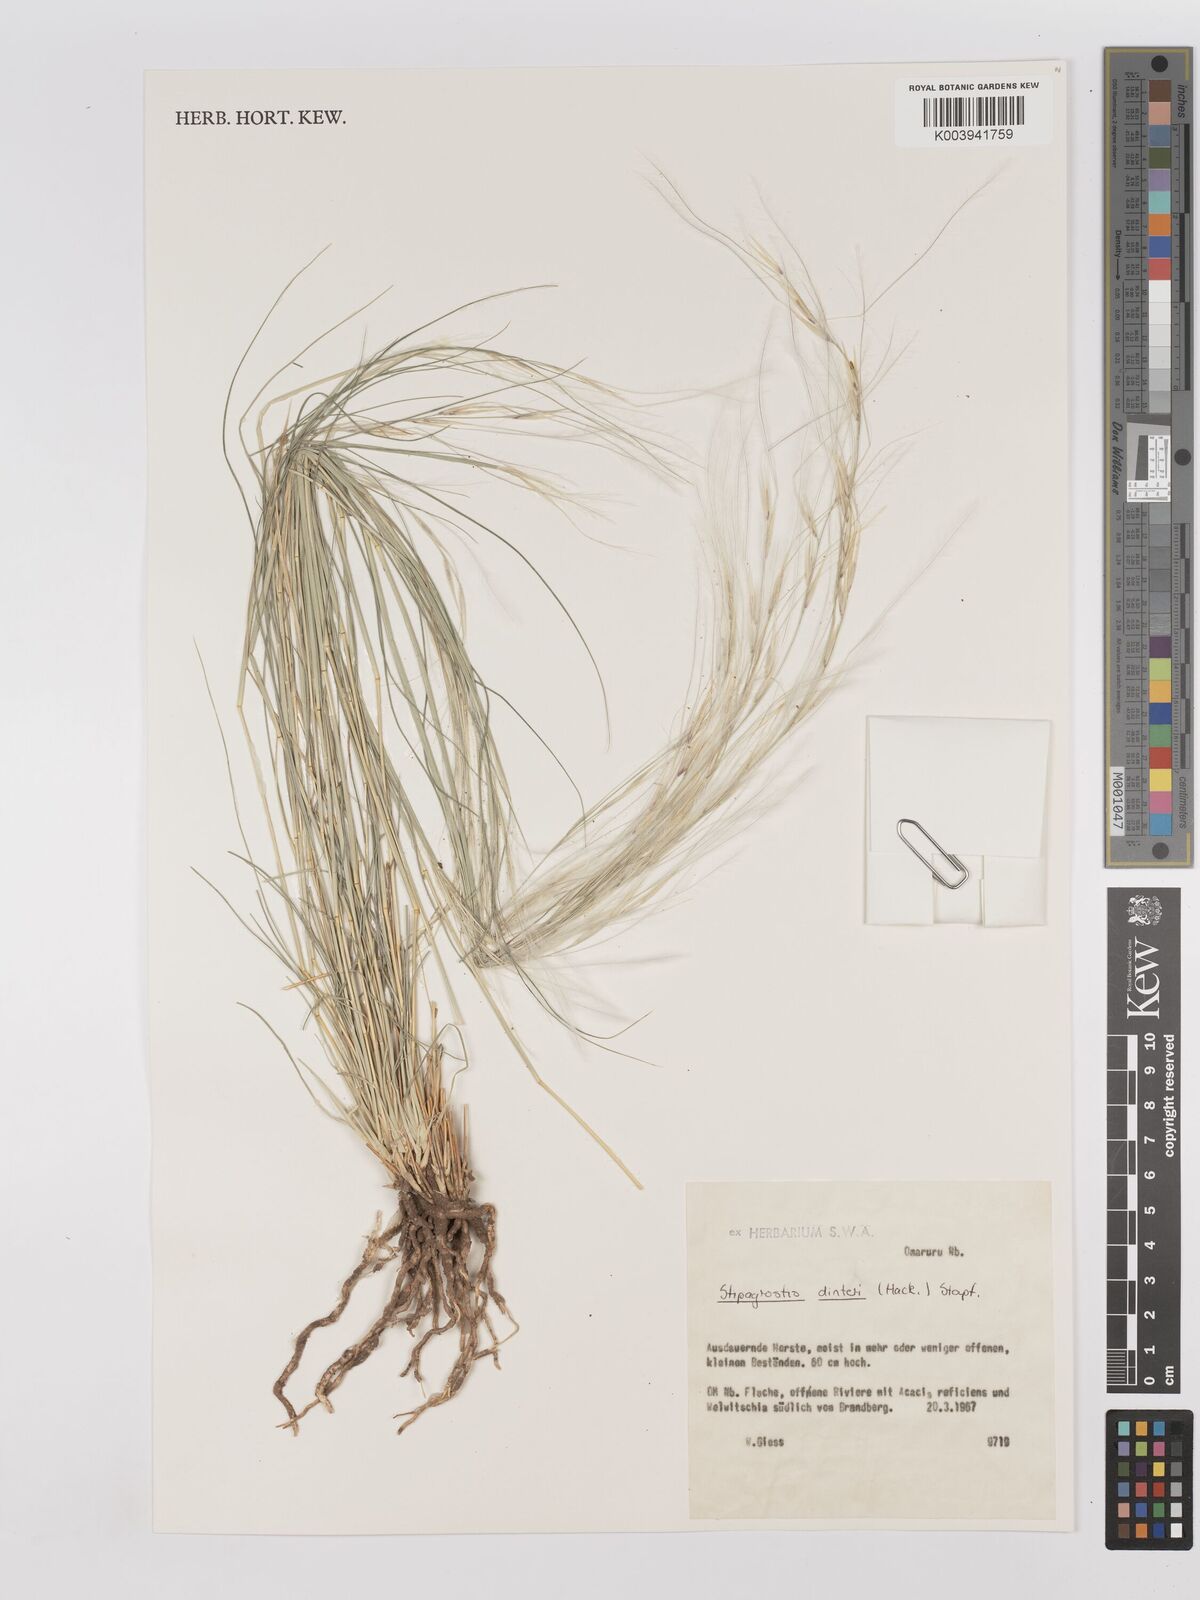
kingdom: Plantae
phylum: Tracheophyta
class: Liliopsida
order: Poales
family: Poaceae
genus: Stipagrostis
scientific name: Stipagrostis dinteri
